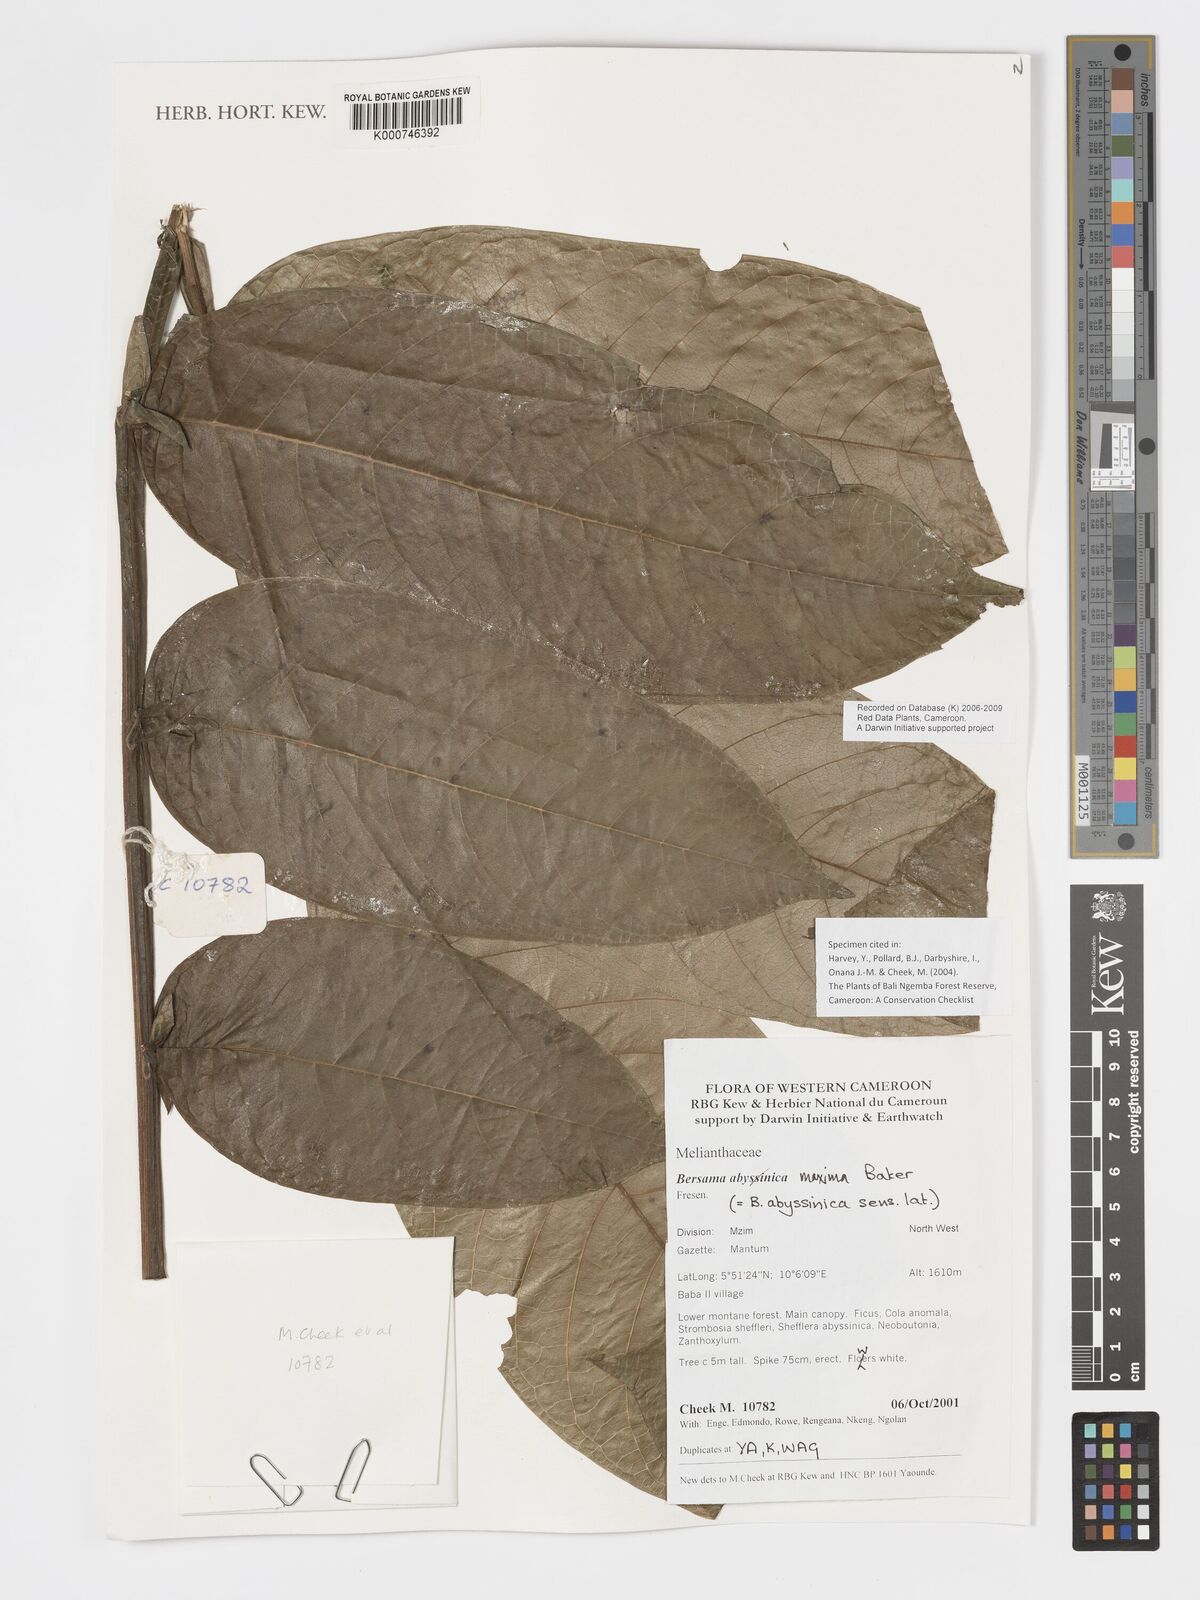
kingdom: Plantae
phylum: Tracheophyta
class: Magnoliopsida
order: Geraniales
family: Melianthaceae
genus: Bersama
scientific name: Bersama maxima
